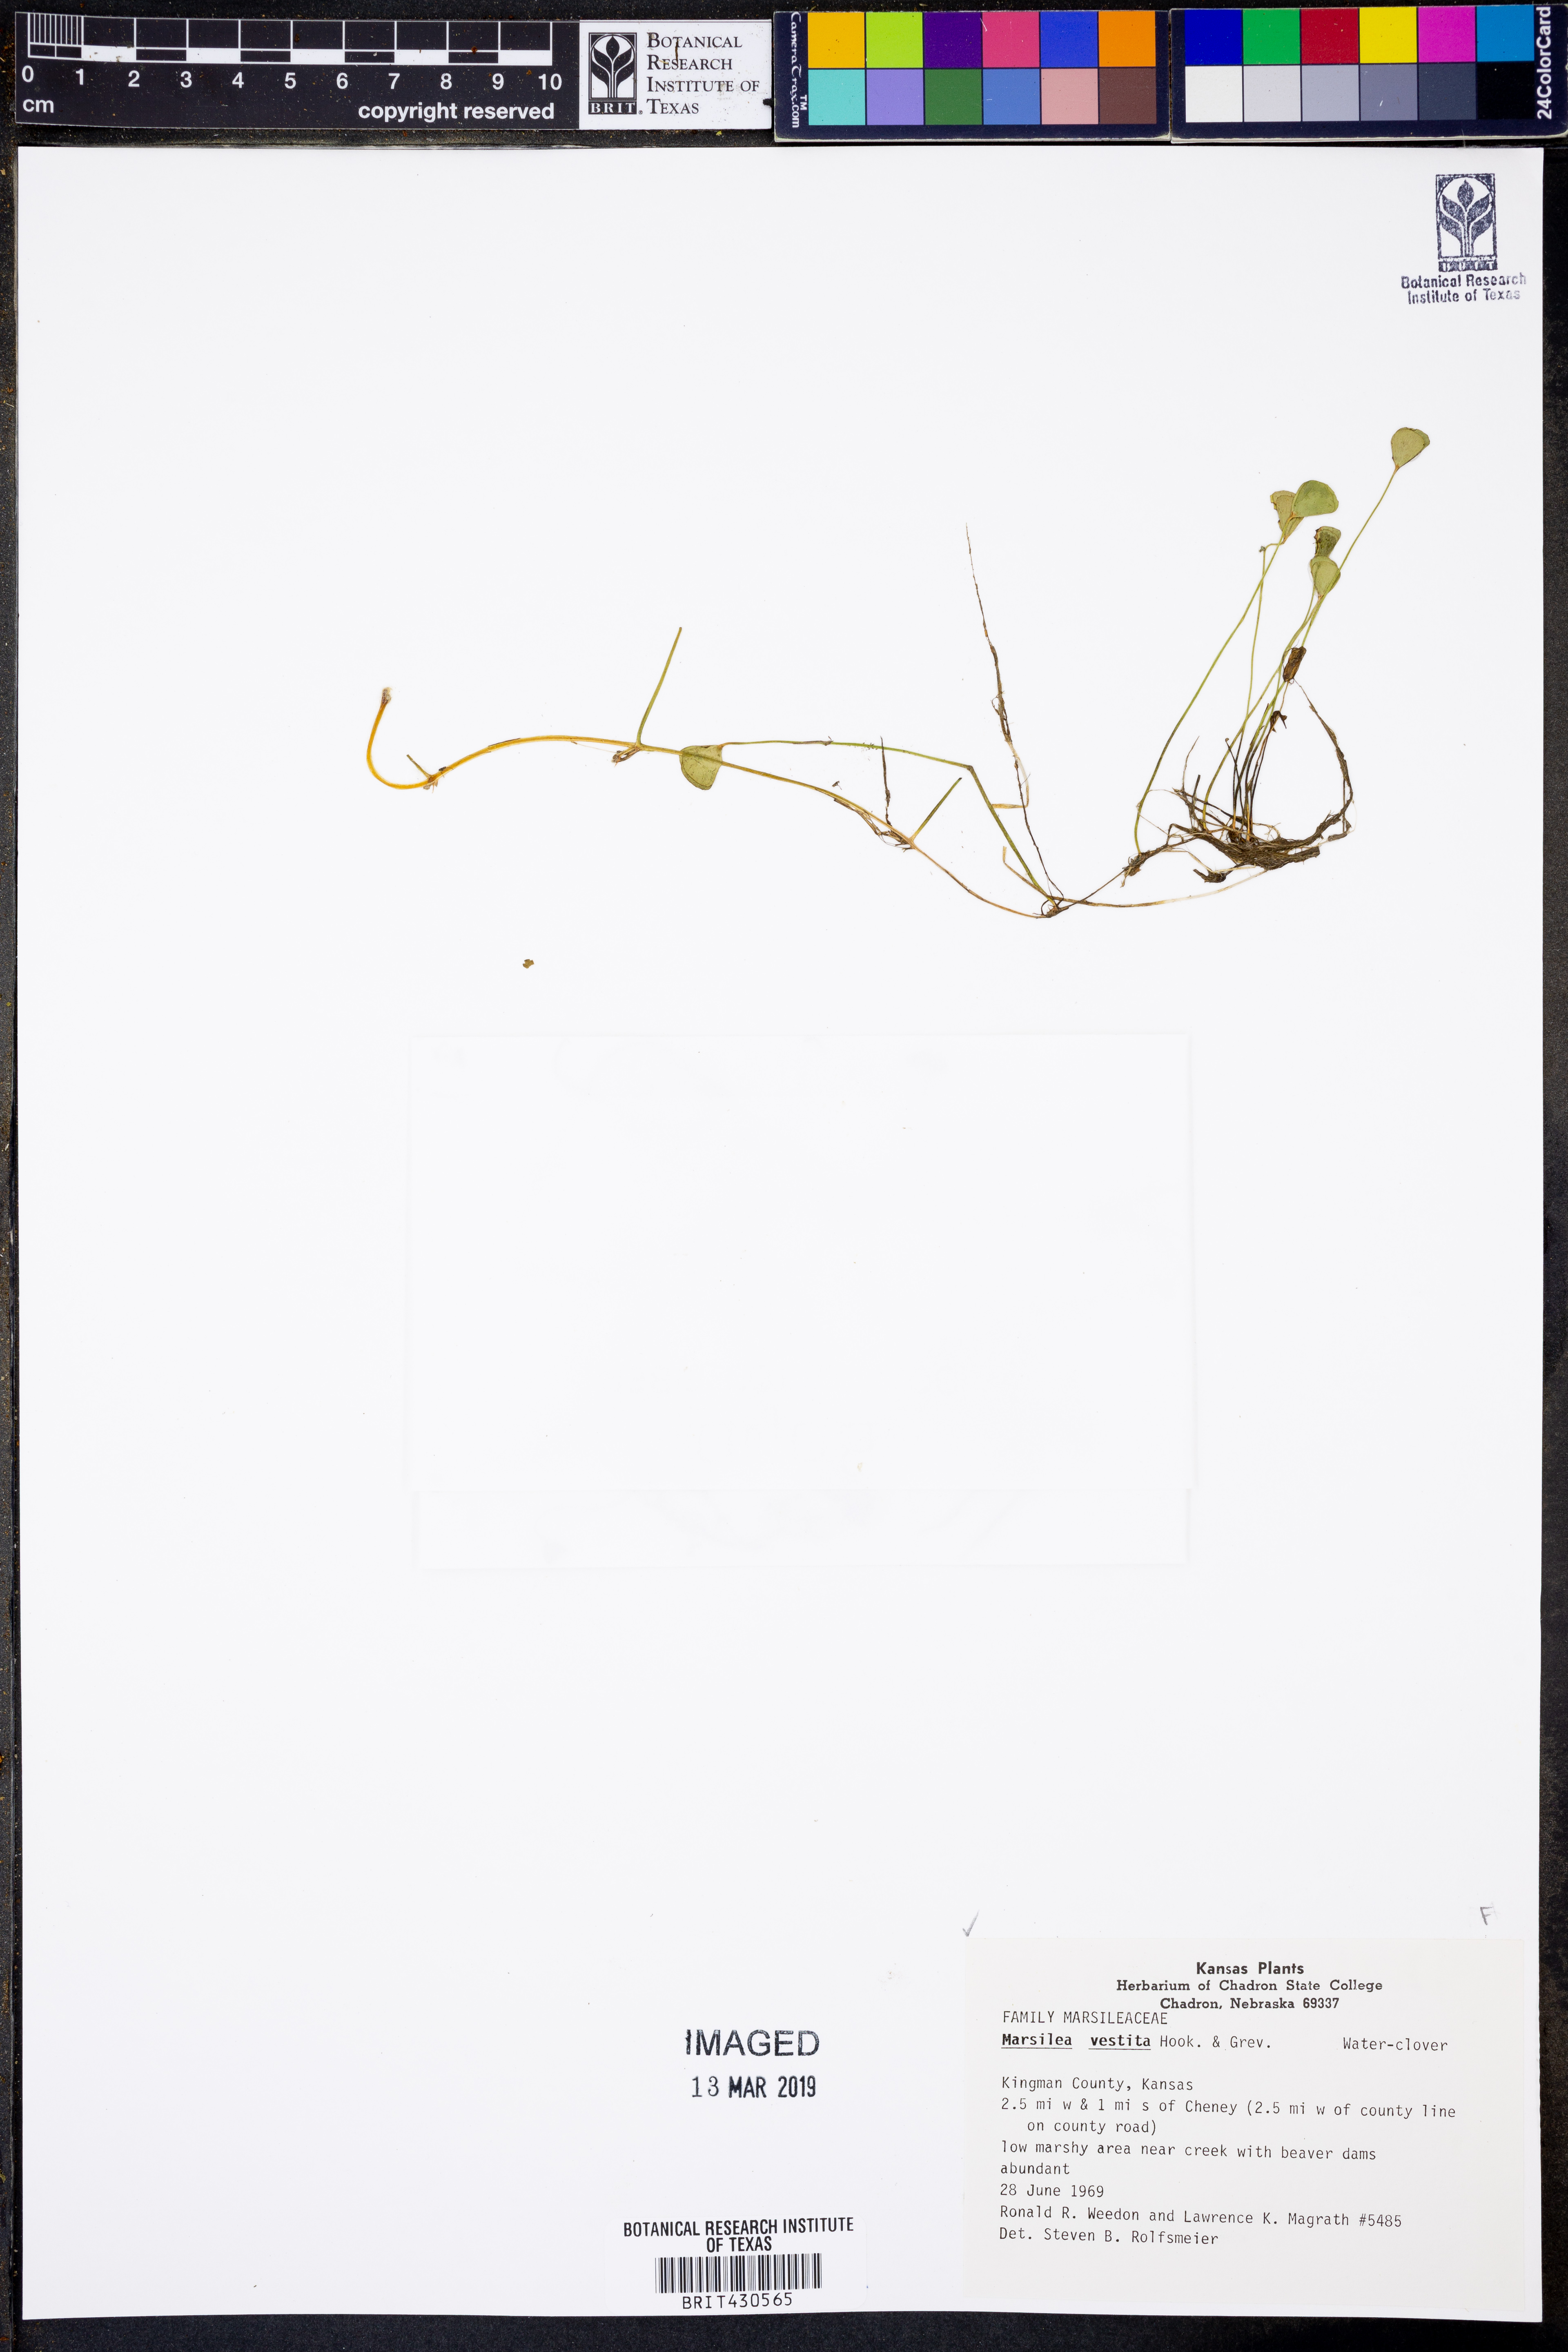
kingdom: Plantae
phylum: Tracheophyta
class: Polypodiopsida
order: Salviniales
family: Marsileaceae
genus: Marsilea
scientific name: Marsilea vestita
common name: Hooked-pepperwort
